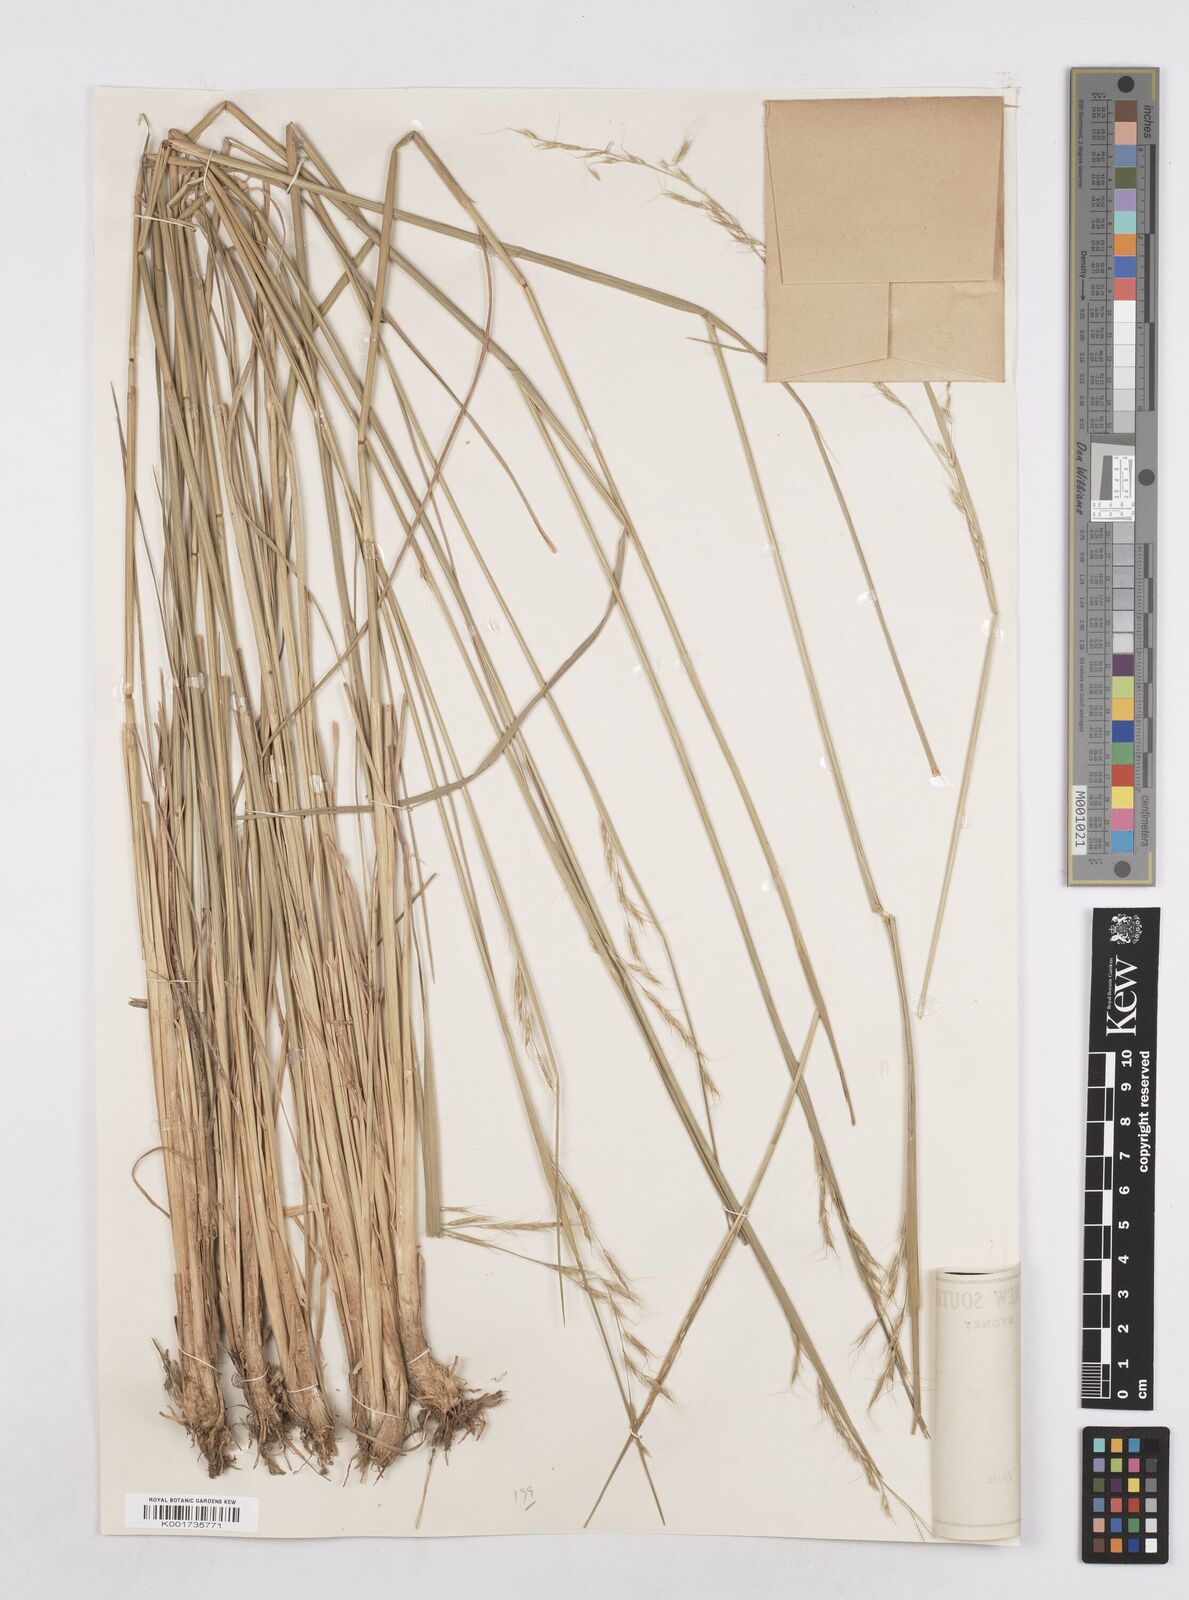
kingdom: Plantae
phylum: Tracheophyta
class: Liliopsida
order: Poales
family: Poaceae
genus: Amphibromus
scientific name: Amphibromus neesii
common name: Australian wallaby grass
